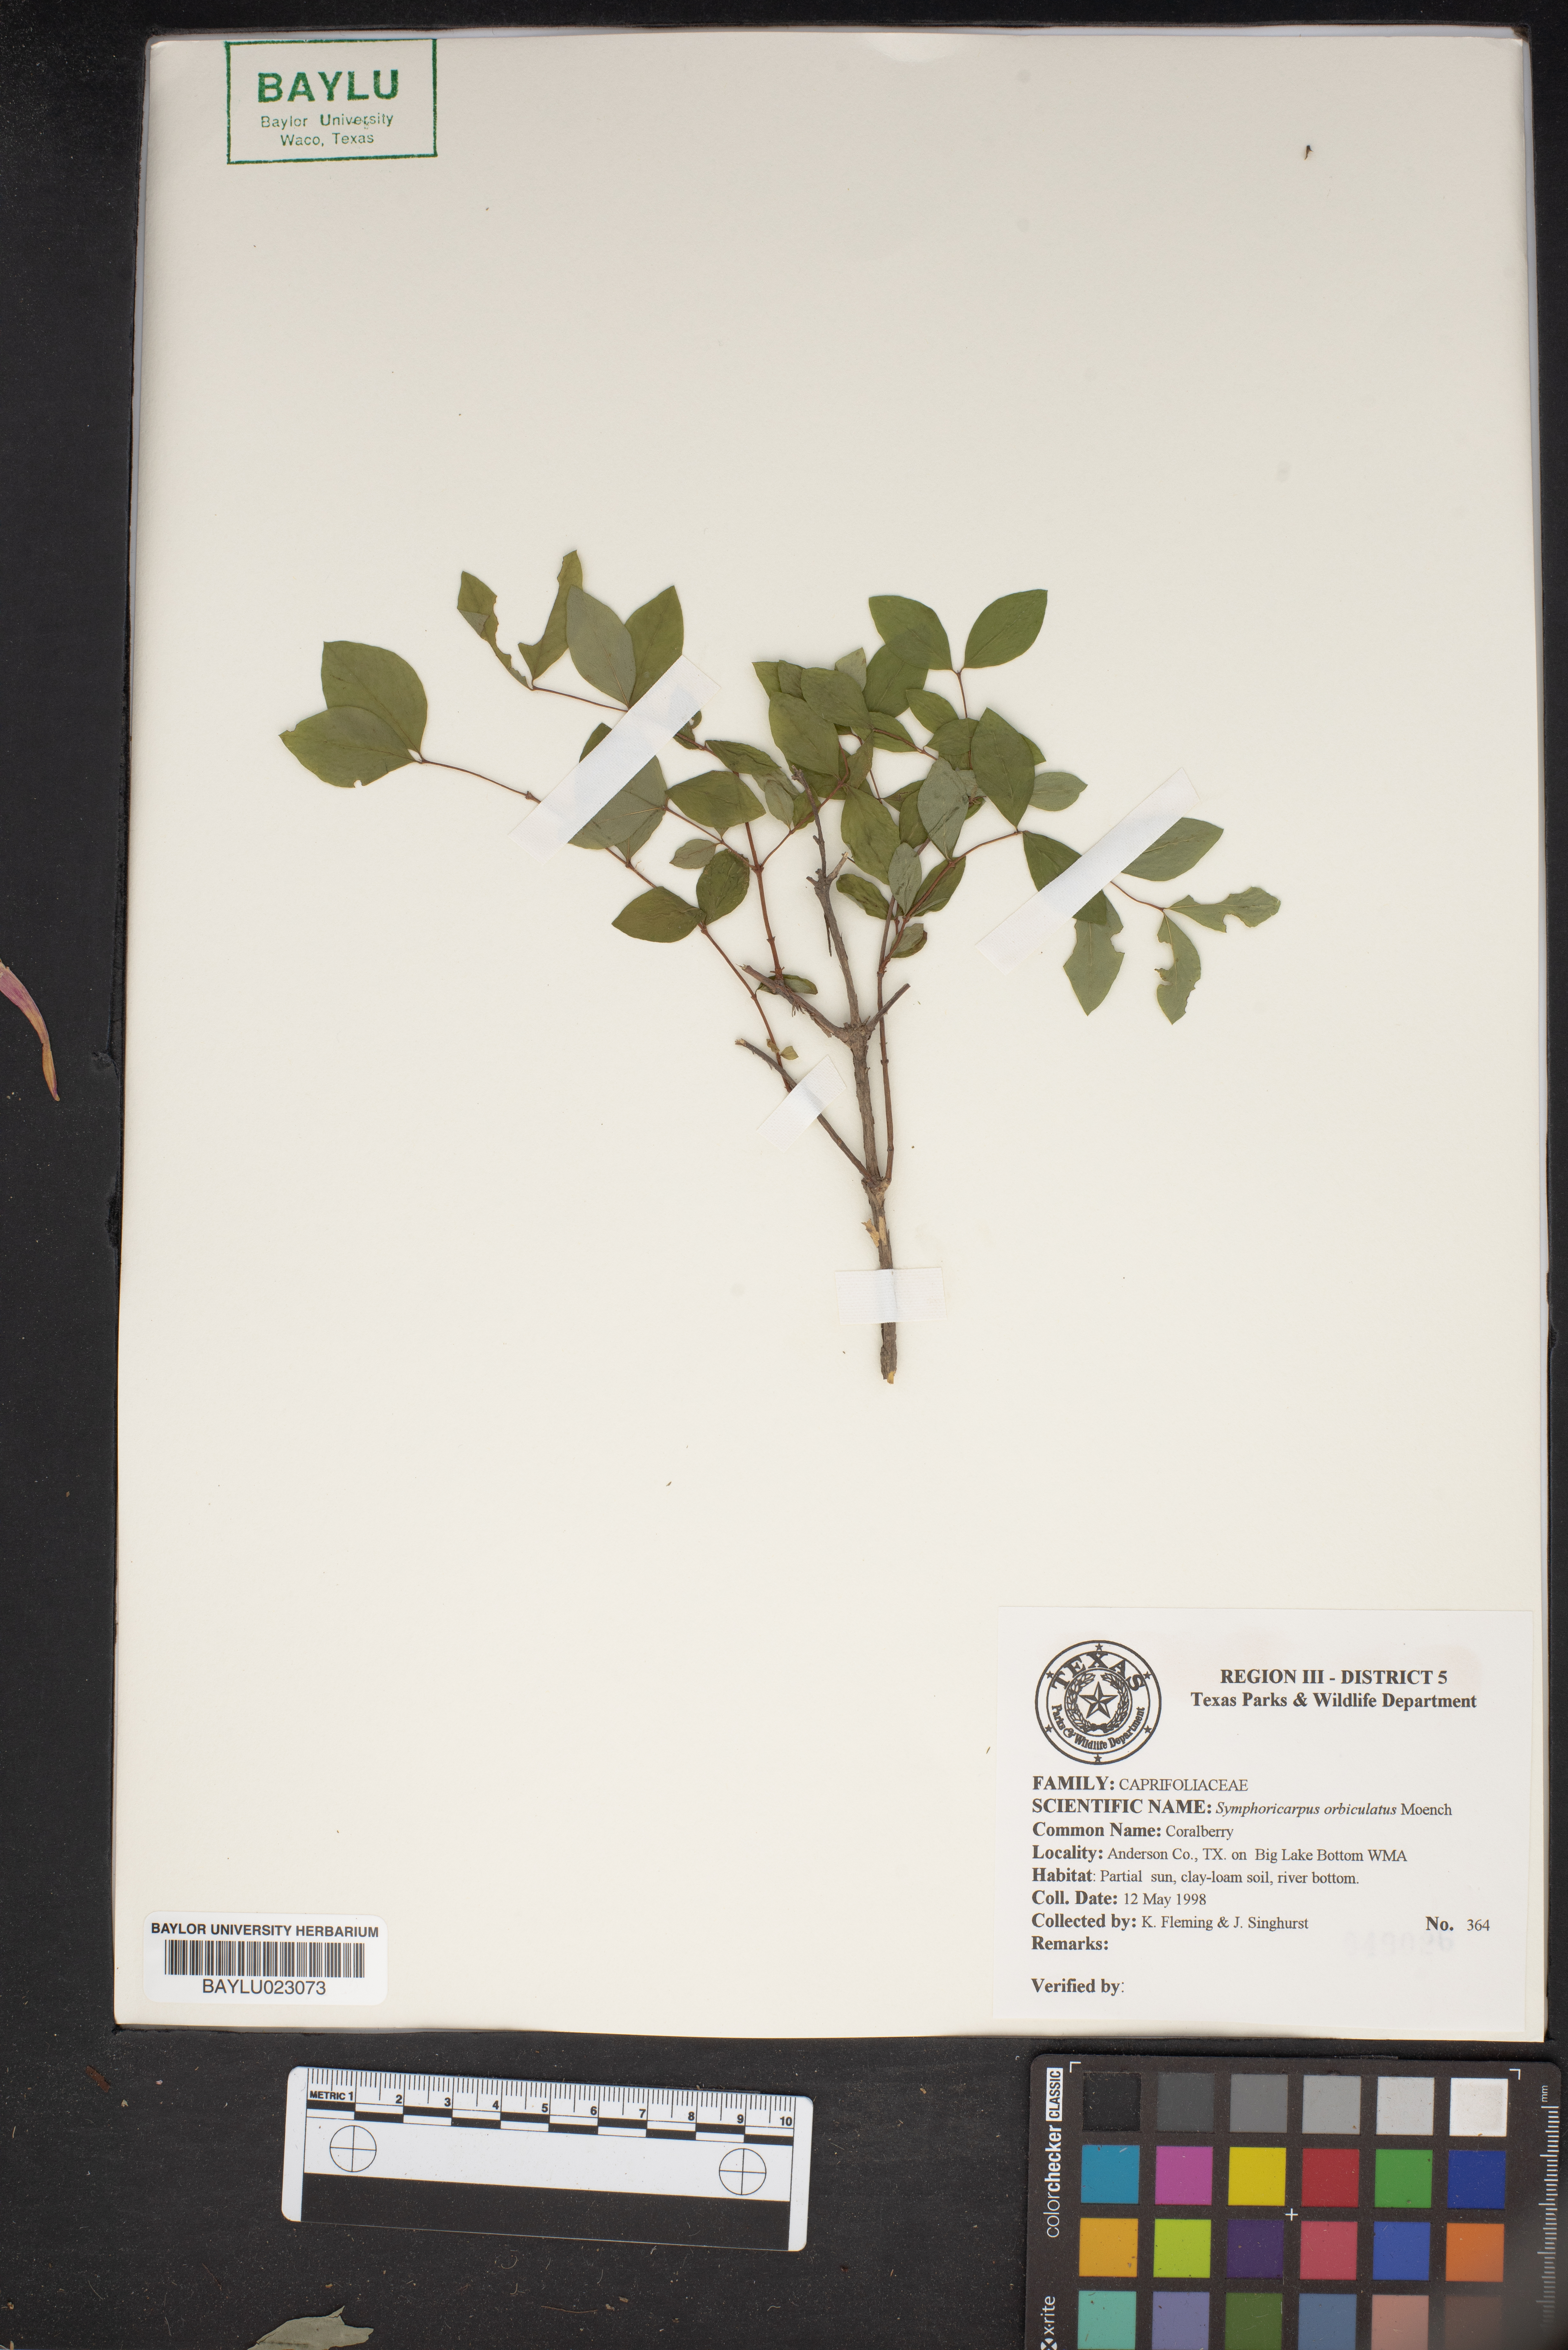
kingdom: Plantae
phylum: Tracheophyta
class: Magnoliopsida
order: Dipsacales
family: Caprifoliaceae
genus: Symphoricarpos
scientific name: Symphoricarpos orbiculatus
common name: Coralberry
